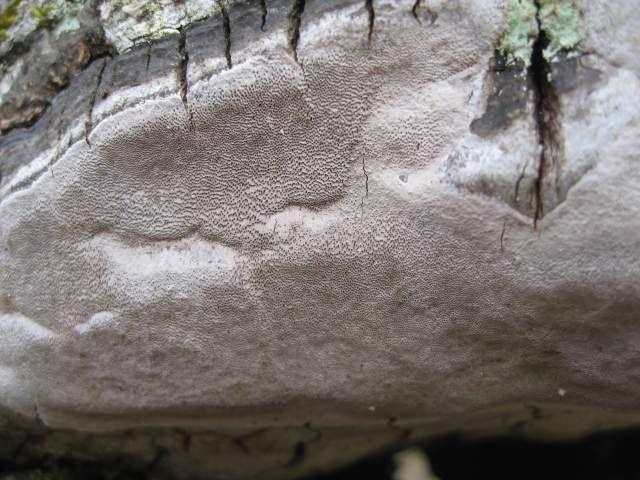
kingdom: Fungi
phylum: Basidiomycota
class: Agaricomycetes
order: Hymenochaetales
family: Hymenochaetaceae
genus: Phellinus
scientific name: Phellinus laevigatus
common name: glat ildporesvamp
